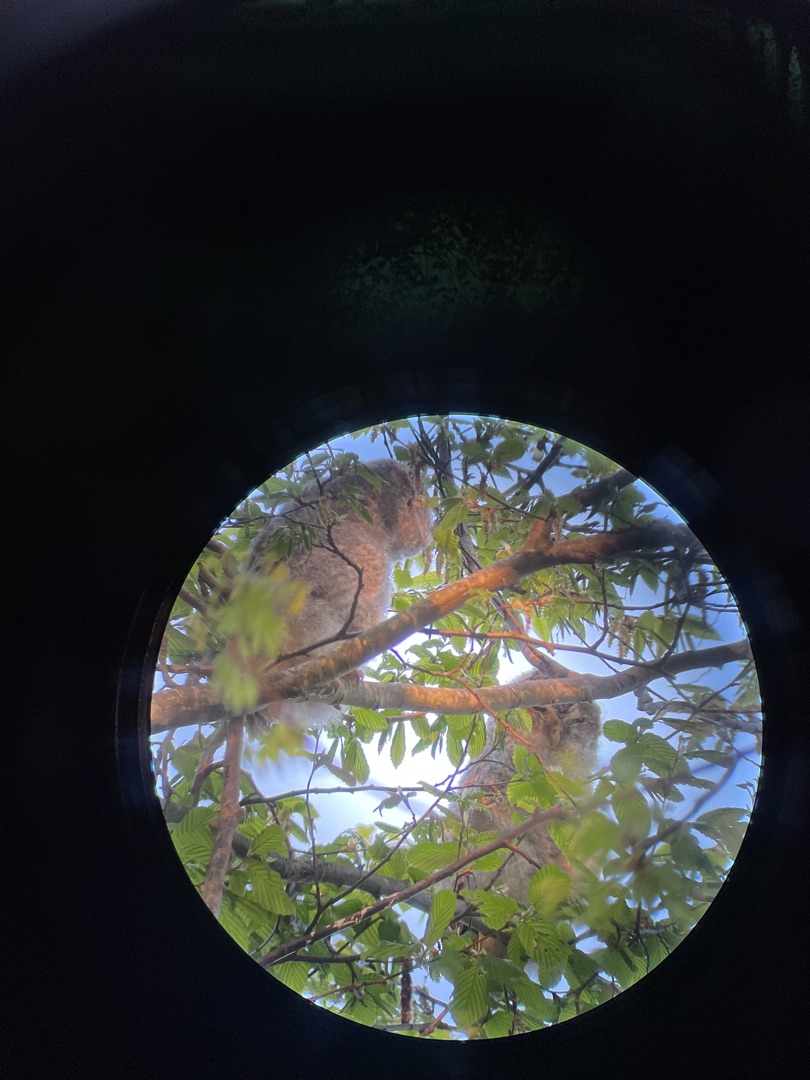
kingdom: Animalia
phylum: Chordata
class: Aves
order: Strigiformes
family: Strigidae
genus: Strix
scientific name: Strix aluco
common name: Natugle
